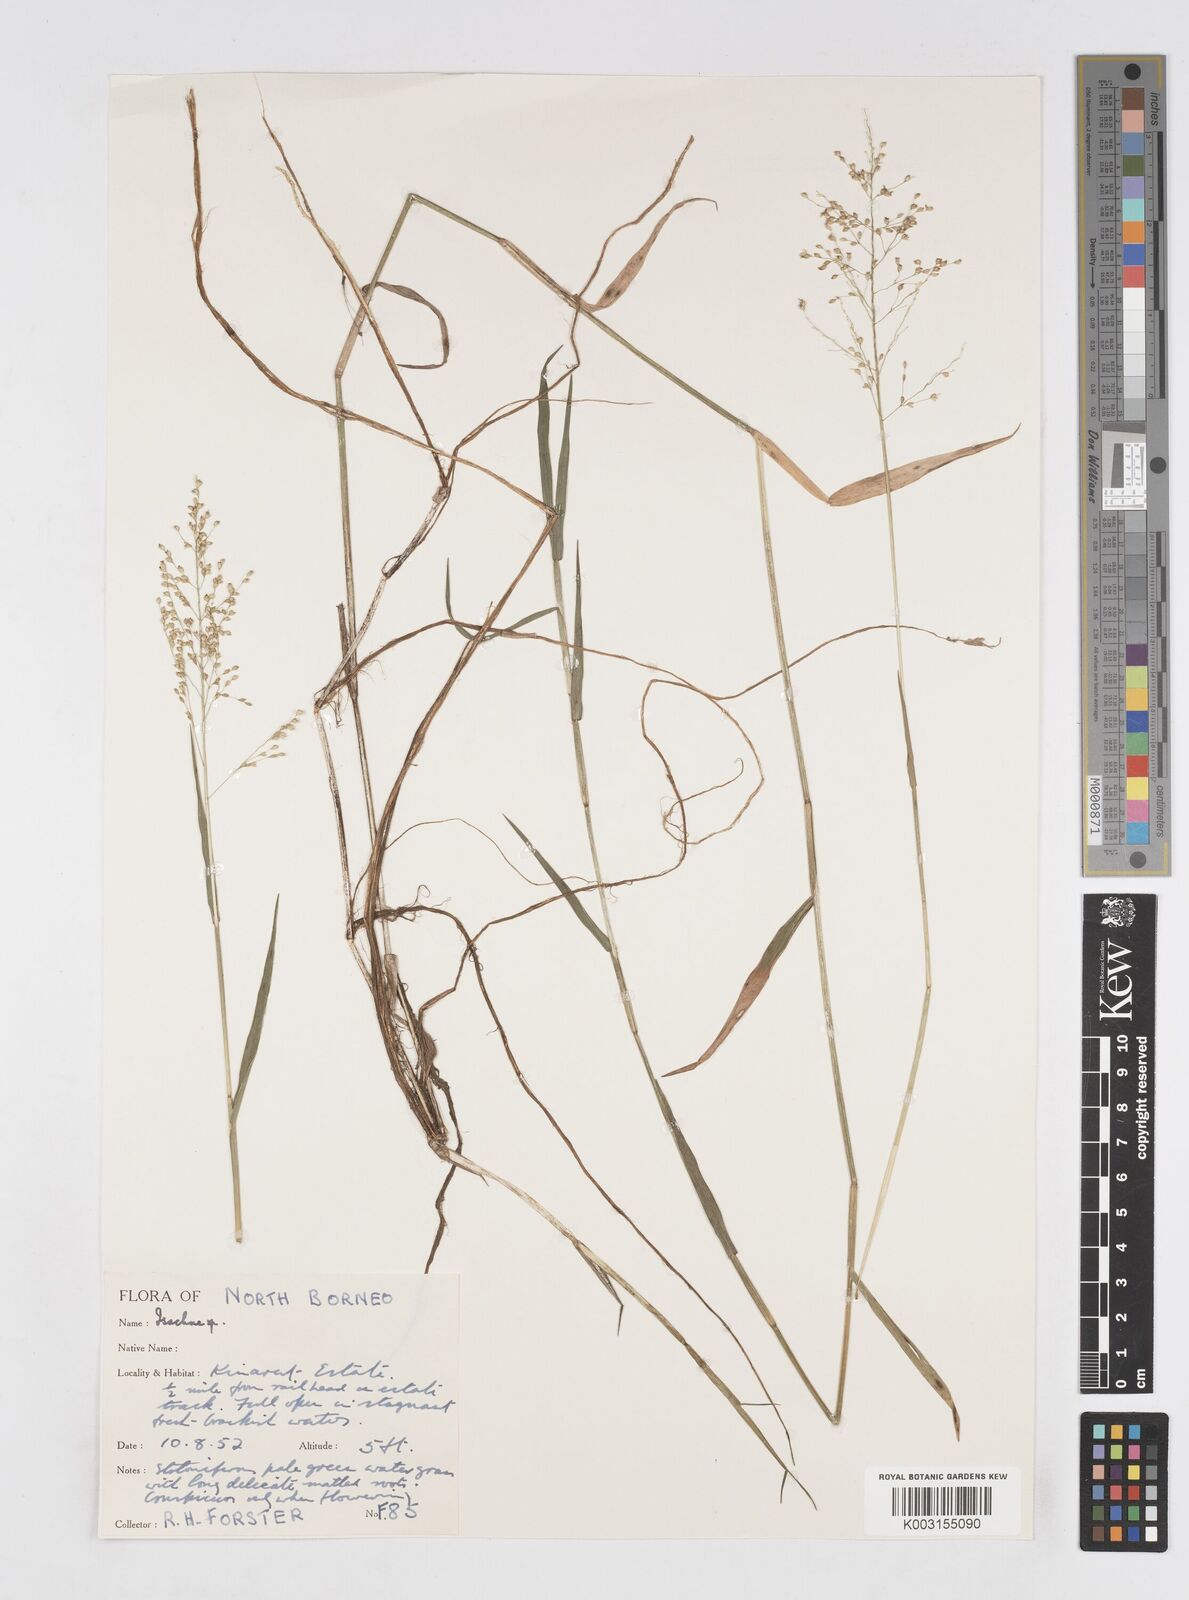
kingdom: Plantae
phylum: Tracheophyta
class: Liliopsida
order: Poales
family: Poaceae
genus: Isachne
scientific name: Isachne
